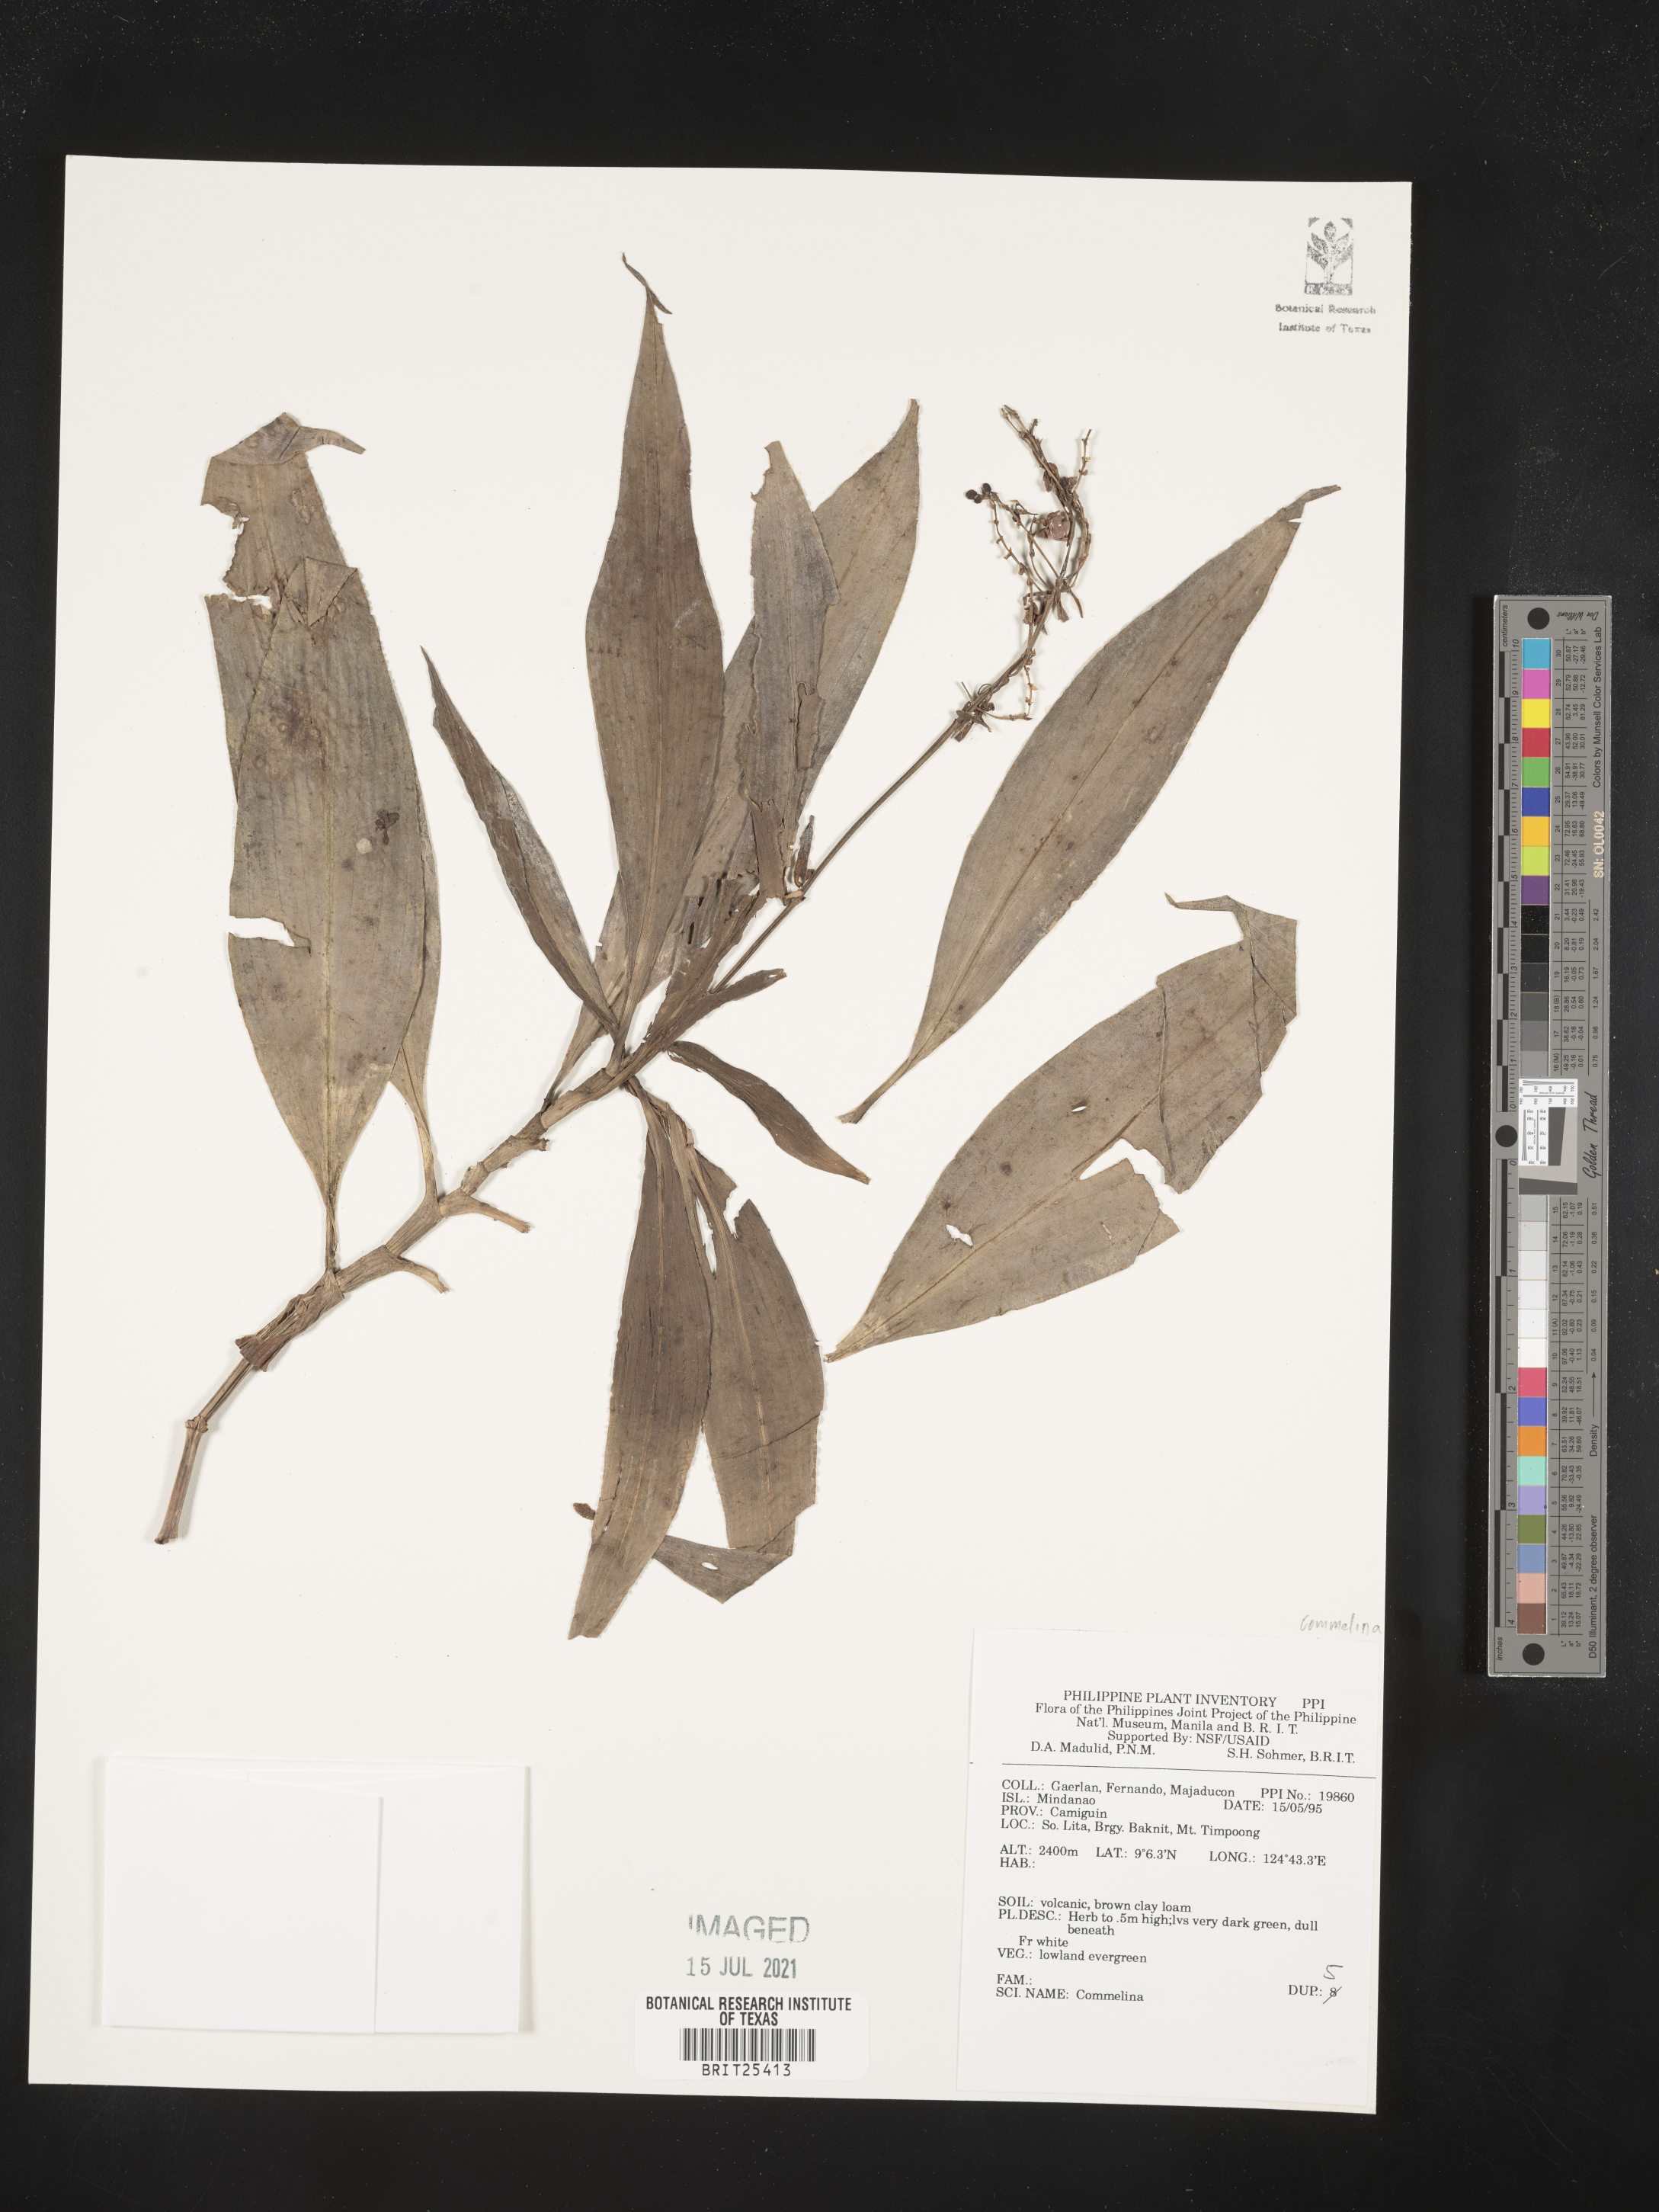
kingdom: Plantae
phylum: Tracheophyta
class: Liliopsida
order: Commelinales
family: Commelinaceae
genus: Commelina
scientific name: Commelina
